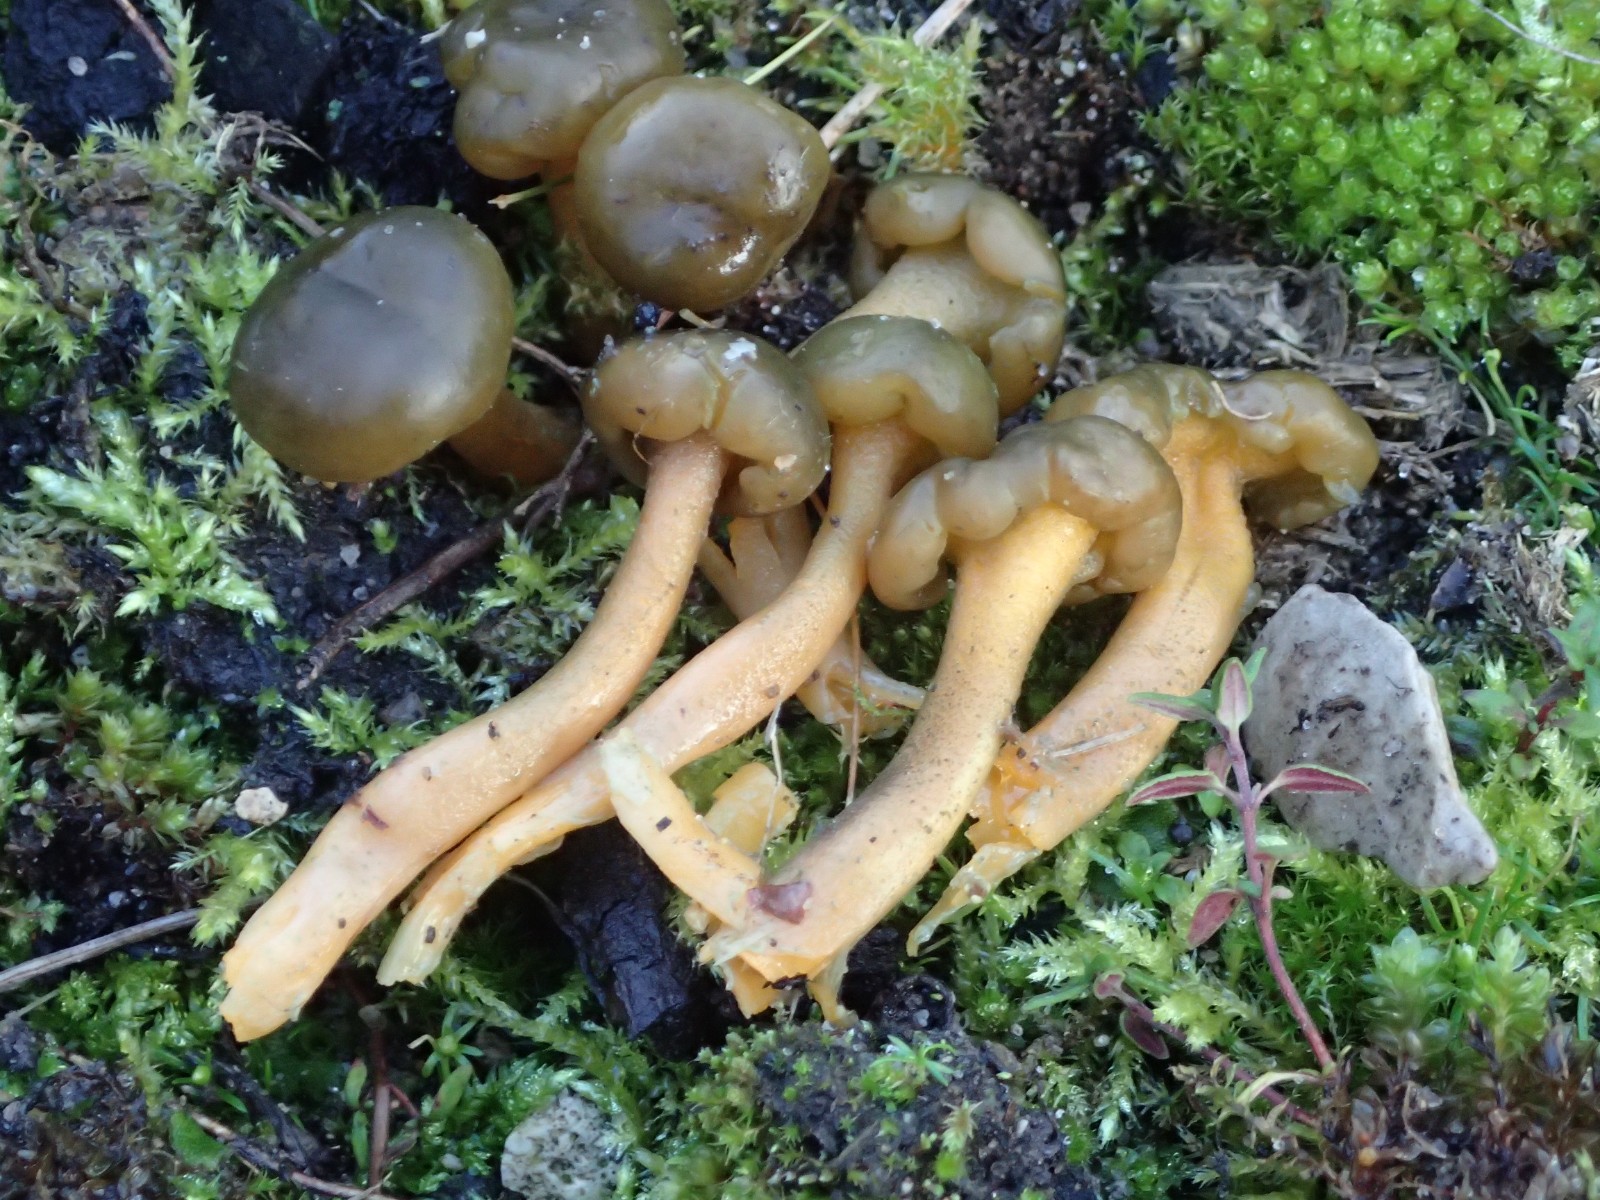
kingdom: Fungi
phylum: Ascomycota
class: Leotiomycetes
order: Leotiales
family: Leotiaceae
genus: Leotia
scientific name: Leotia lubrica
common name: ravsvamp
